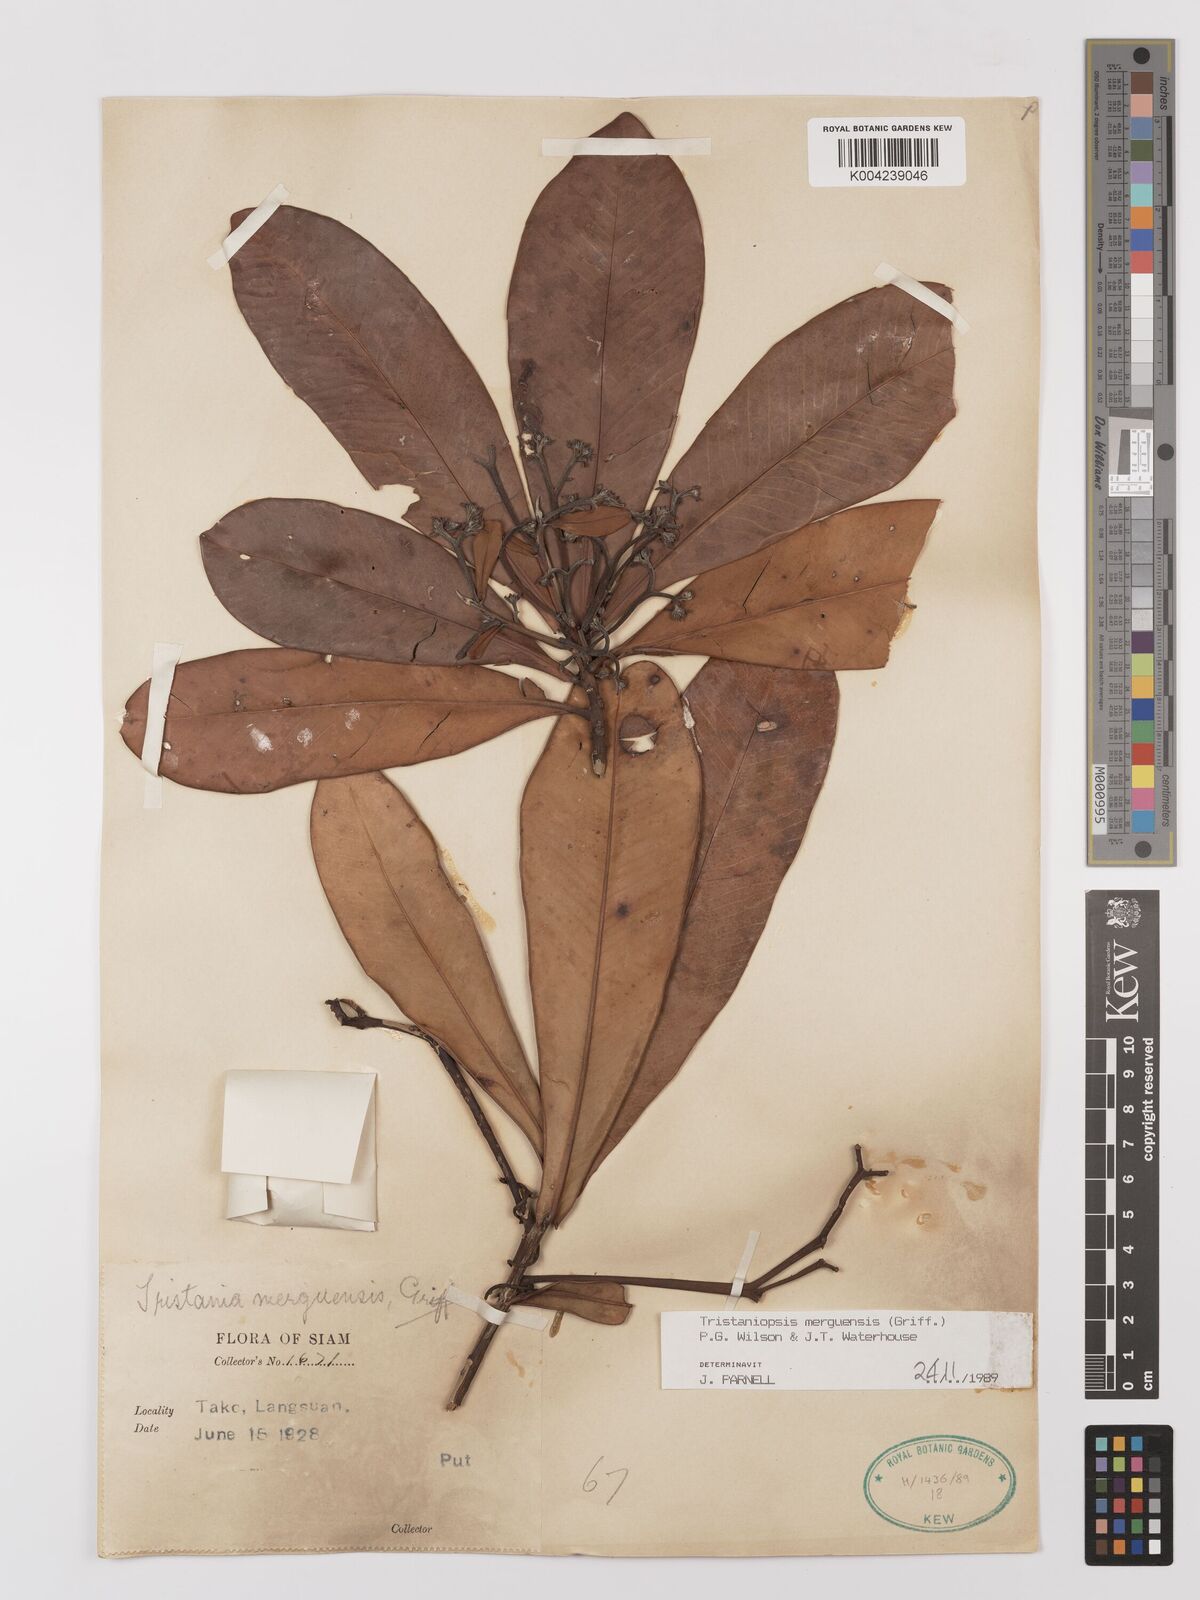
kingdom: Plantae
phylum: Tracheophyta
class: Magnoliopsida
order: Myrtales
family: Myrtaceae
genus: Tristaniopsis
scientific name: Tristaniopsis merguensis
